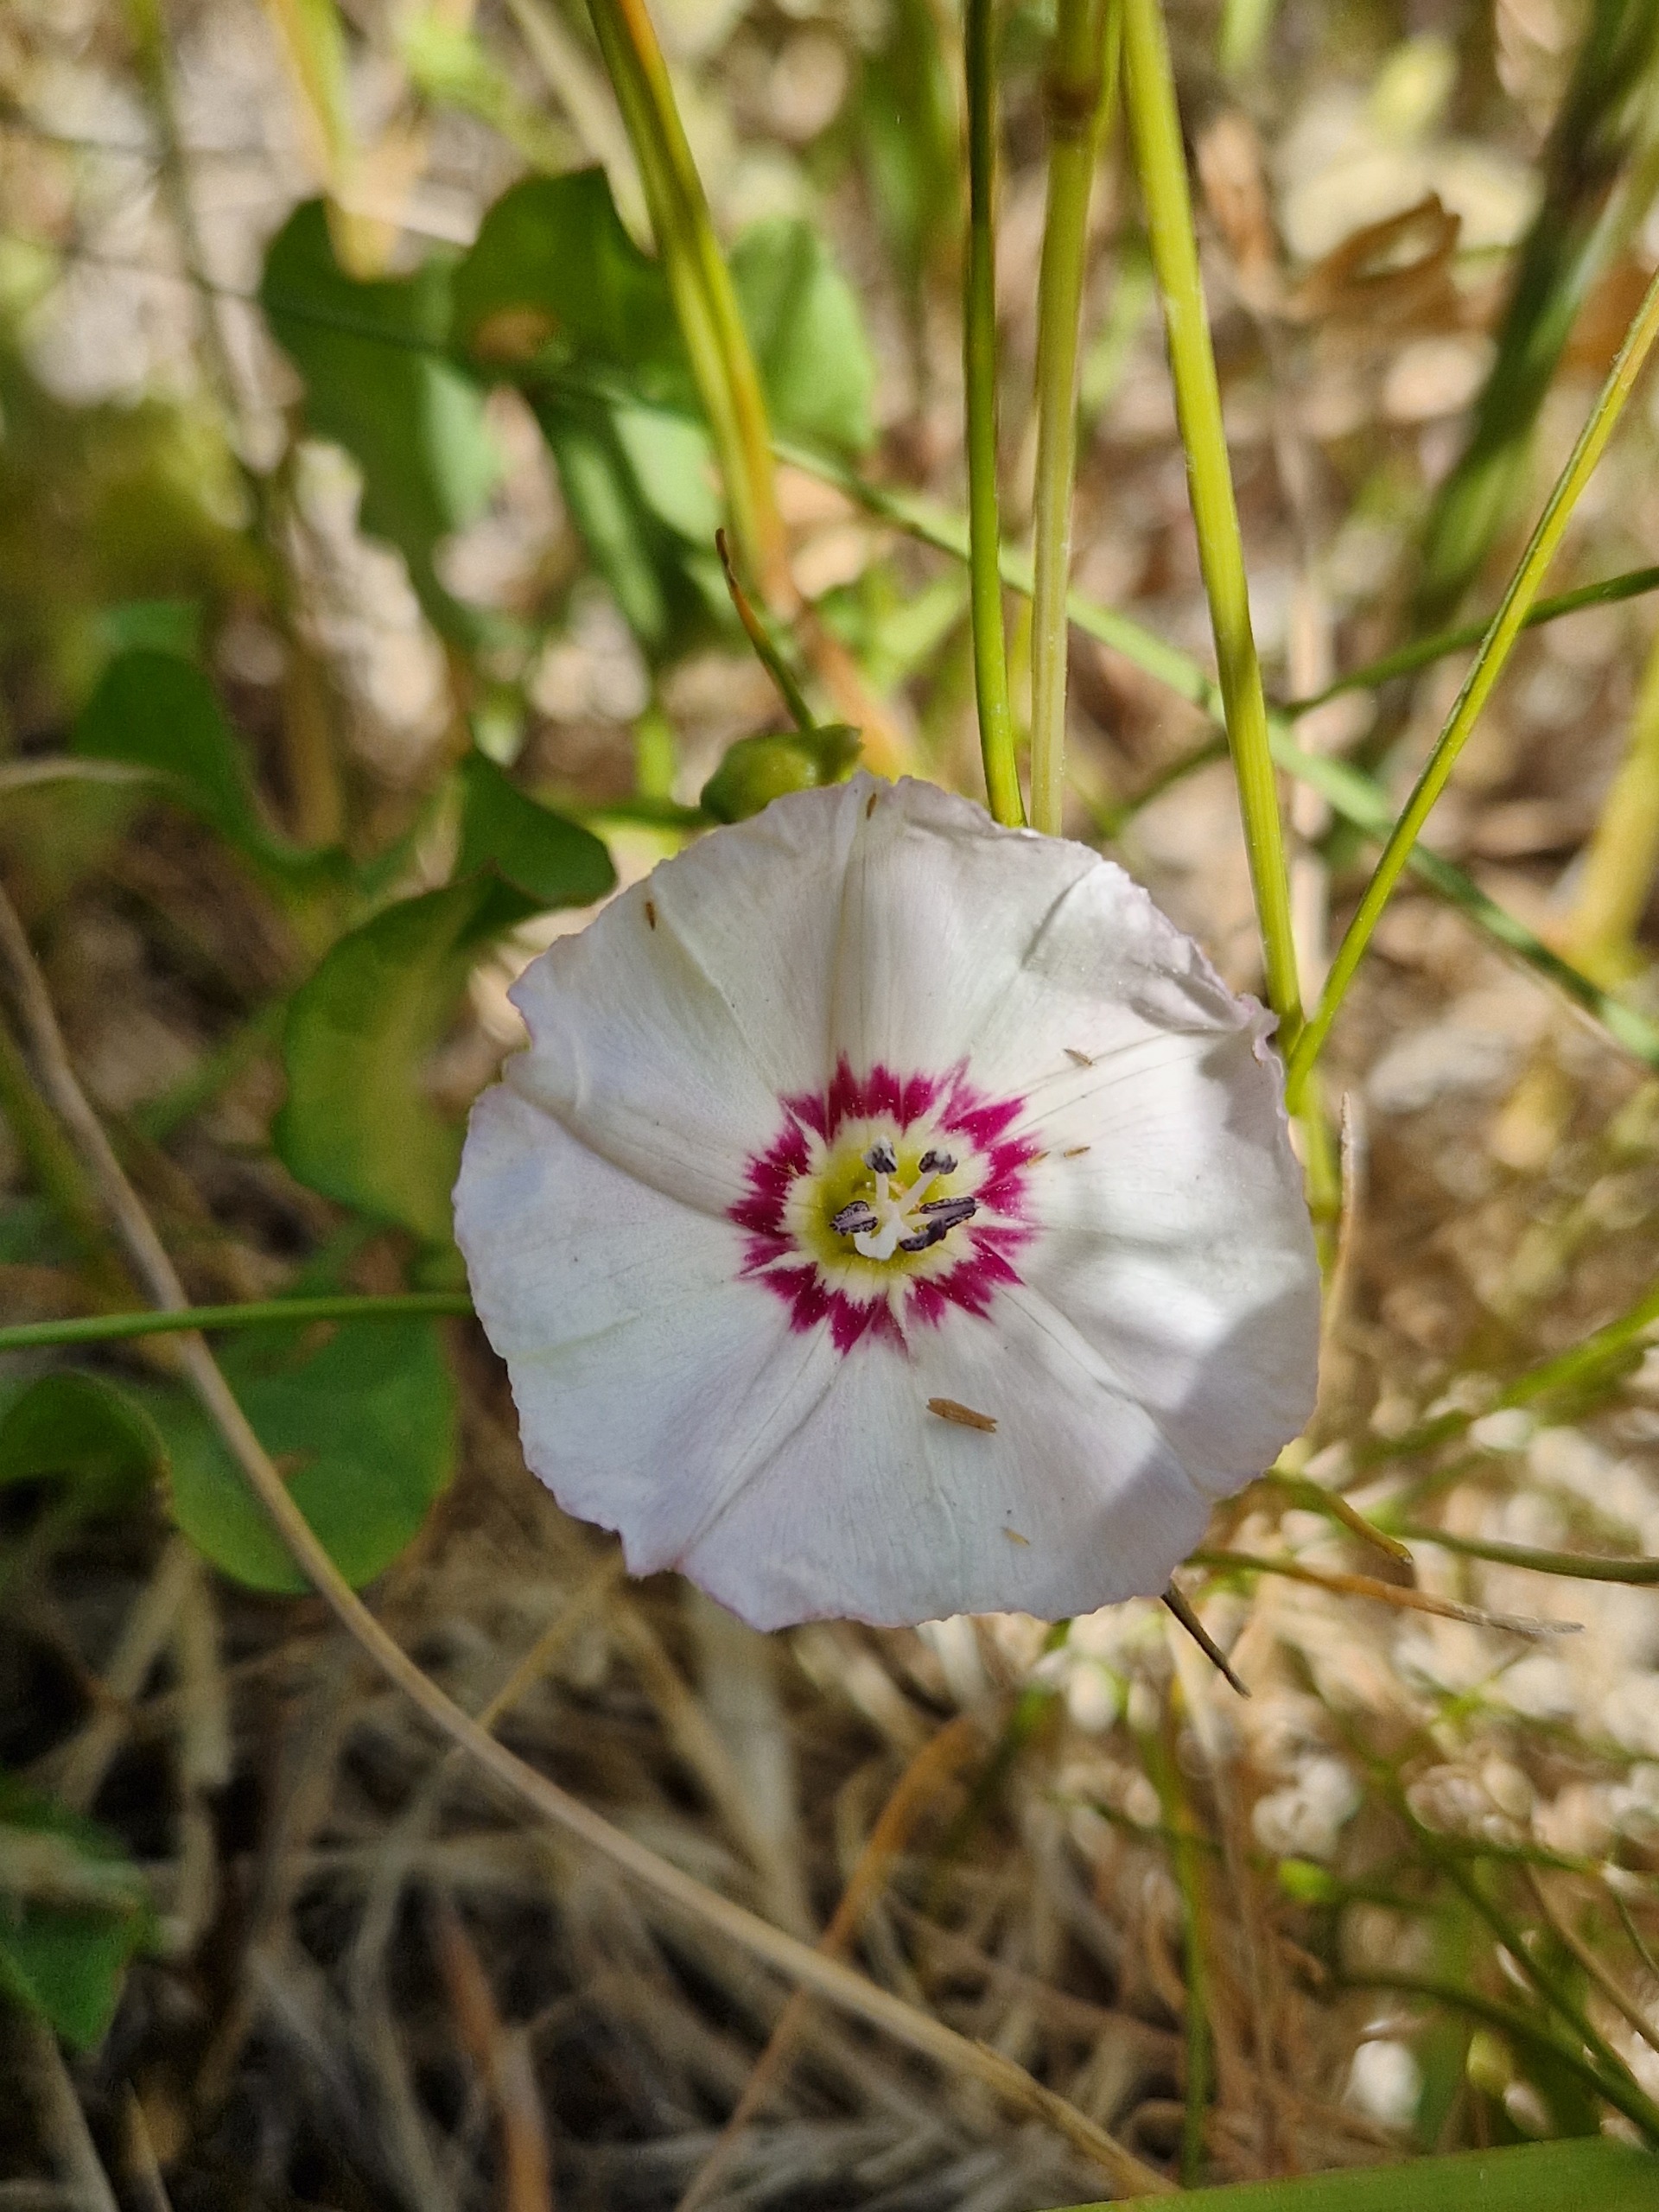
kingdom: Plantae
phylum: Tracheophyta
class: Magnoliopsida
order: Solanales
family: Convolvulaceae
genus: Convolvulus
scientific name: Convolvulus arvensis
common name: Ager-snerle
